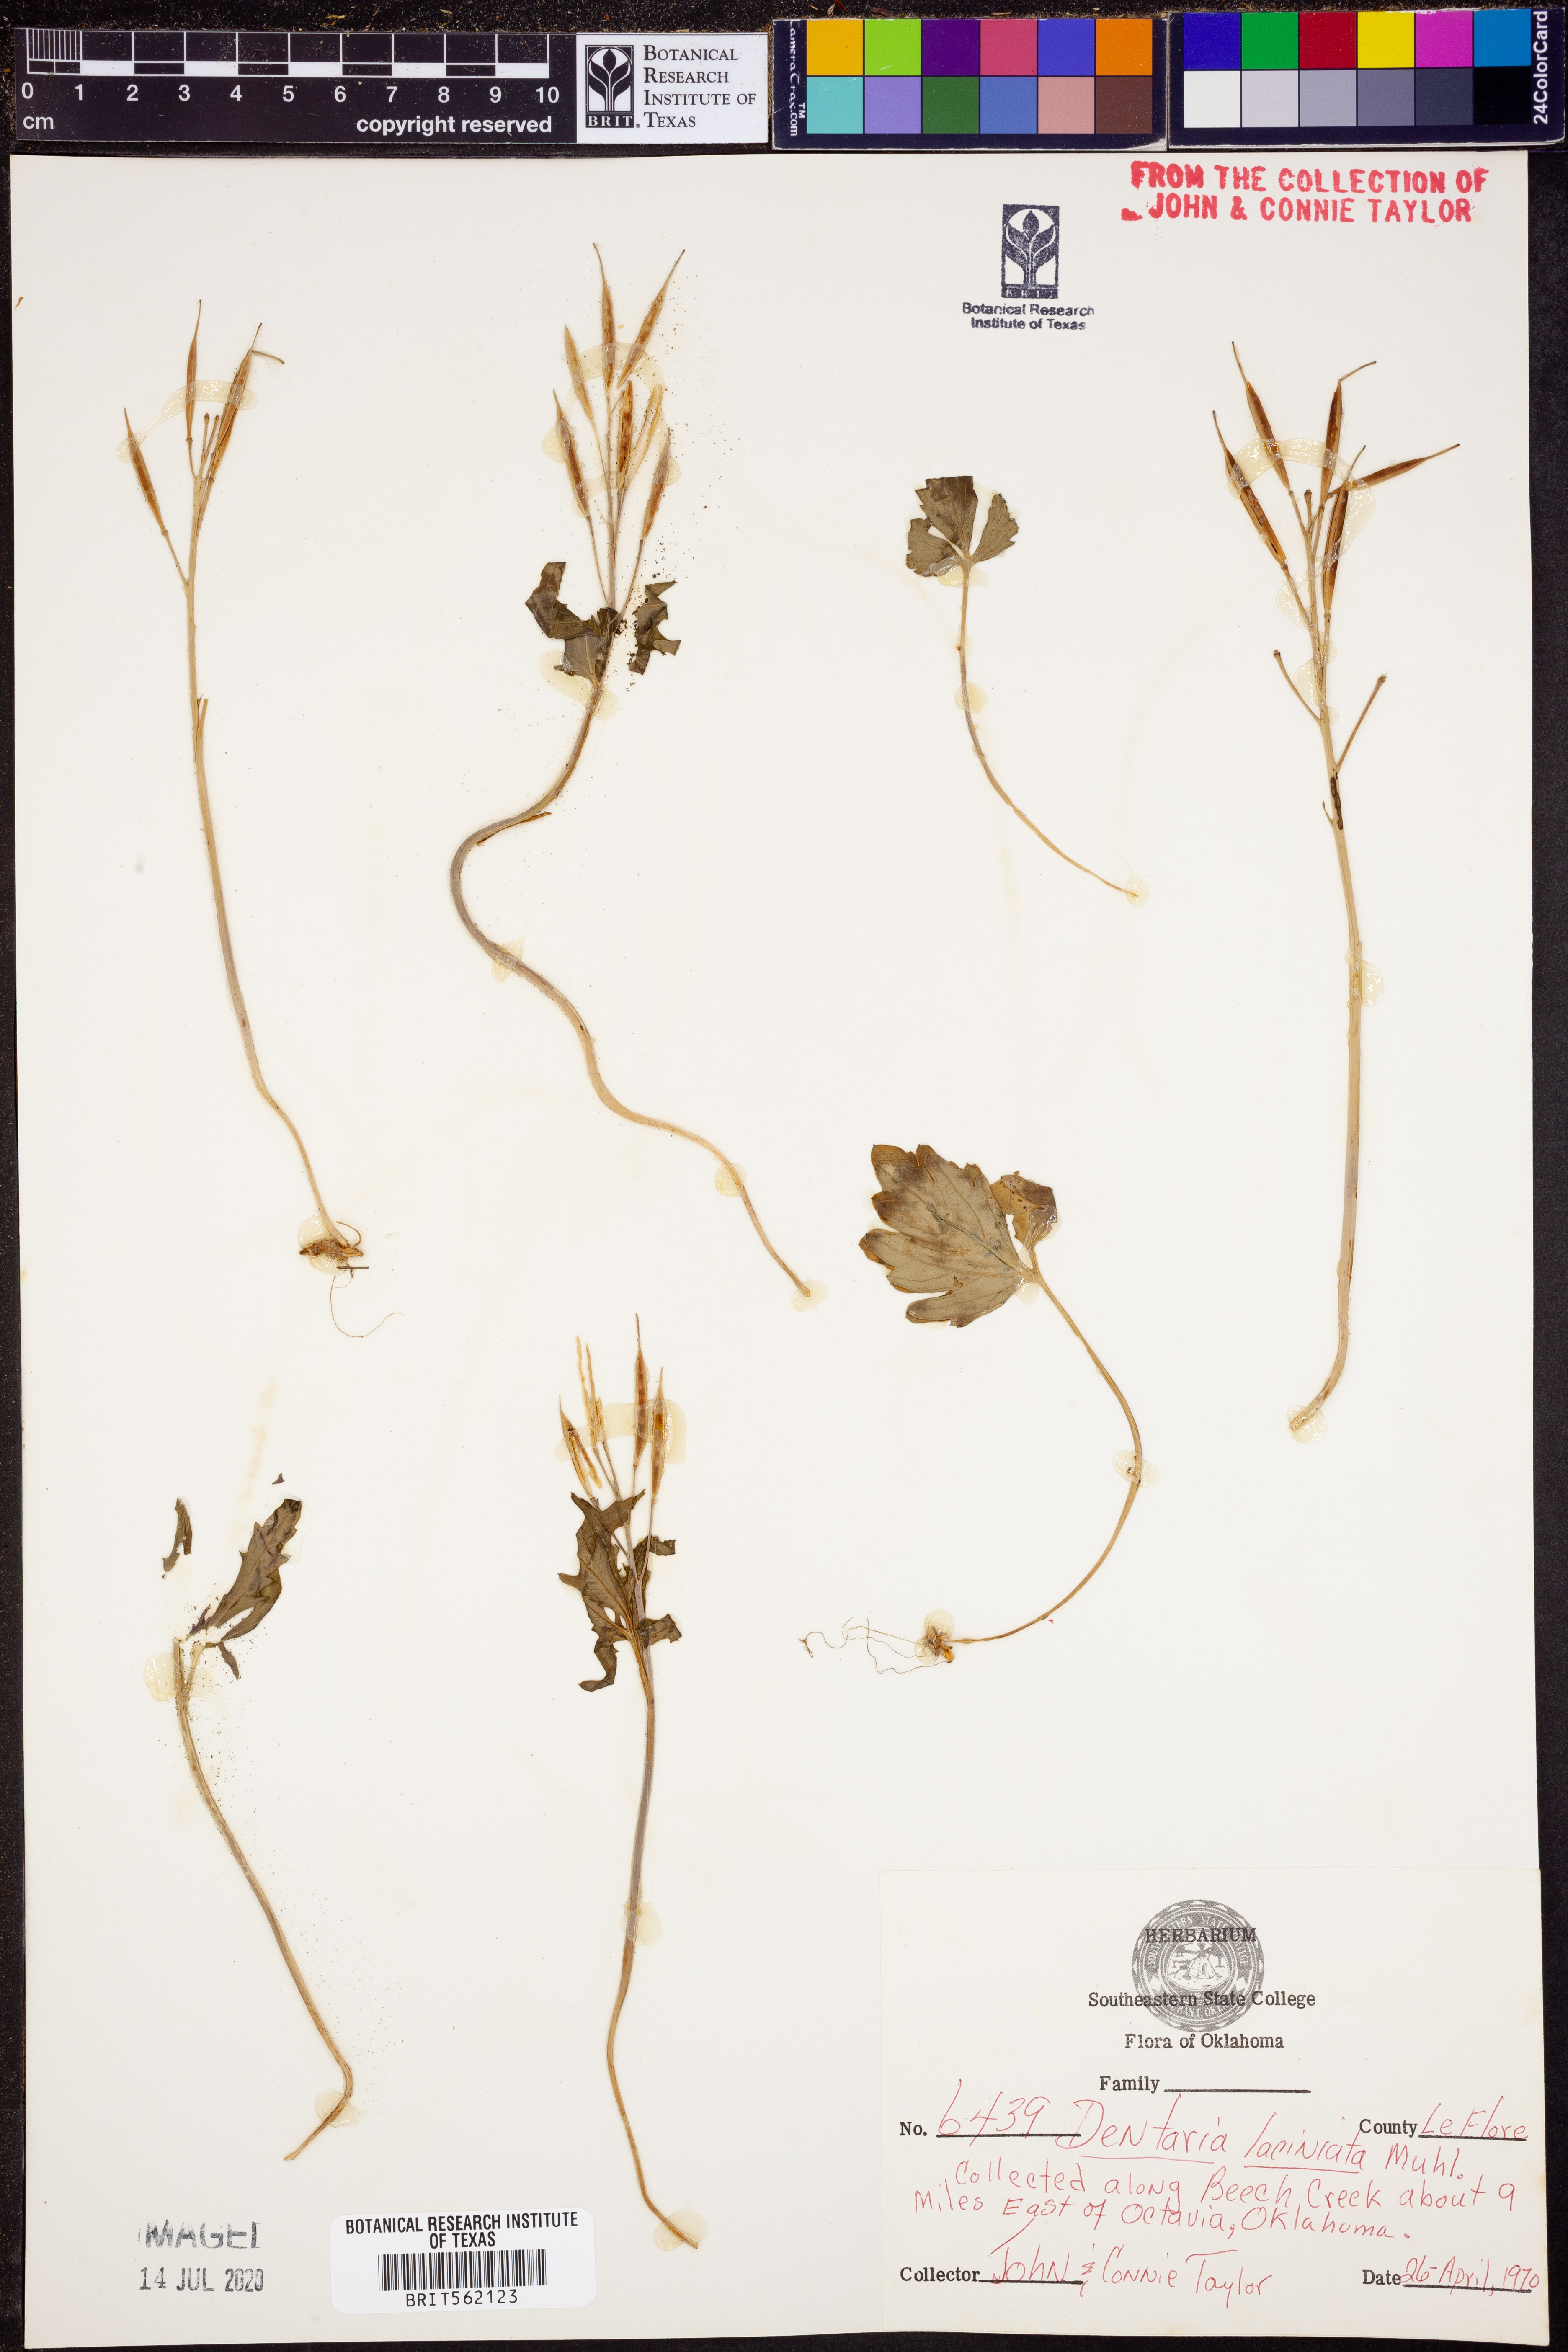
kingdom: Plantae
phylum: Tracheophyta
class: Magnoliopsida
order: Brassicales
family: Brassicaceae
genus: Cardamine
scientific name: Cardamine concatenata
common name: Cut-leaf toothcup
